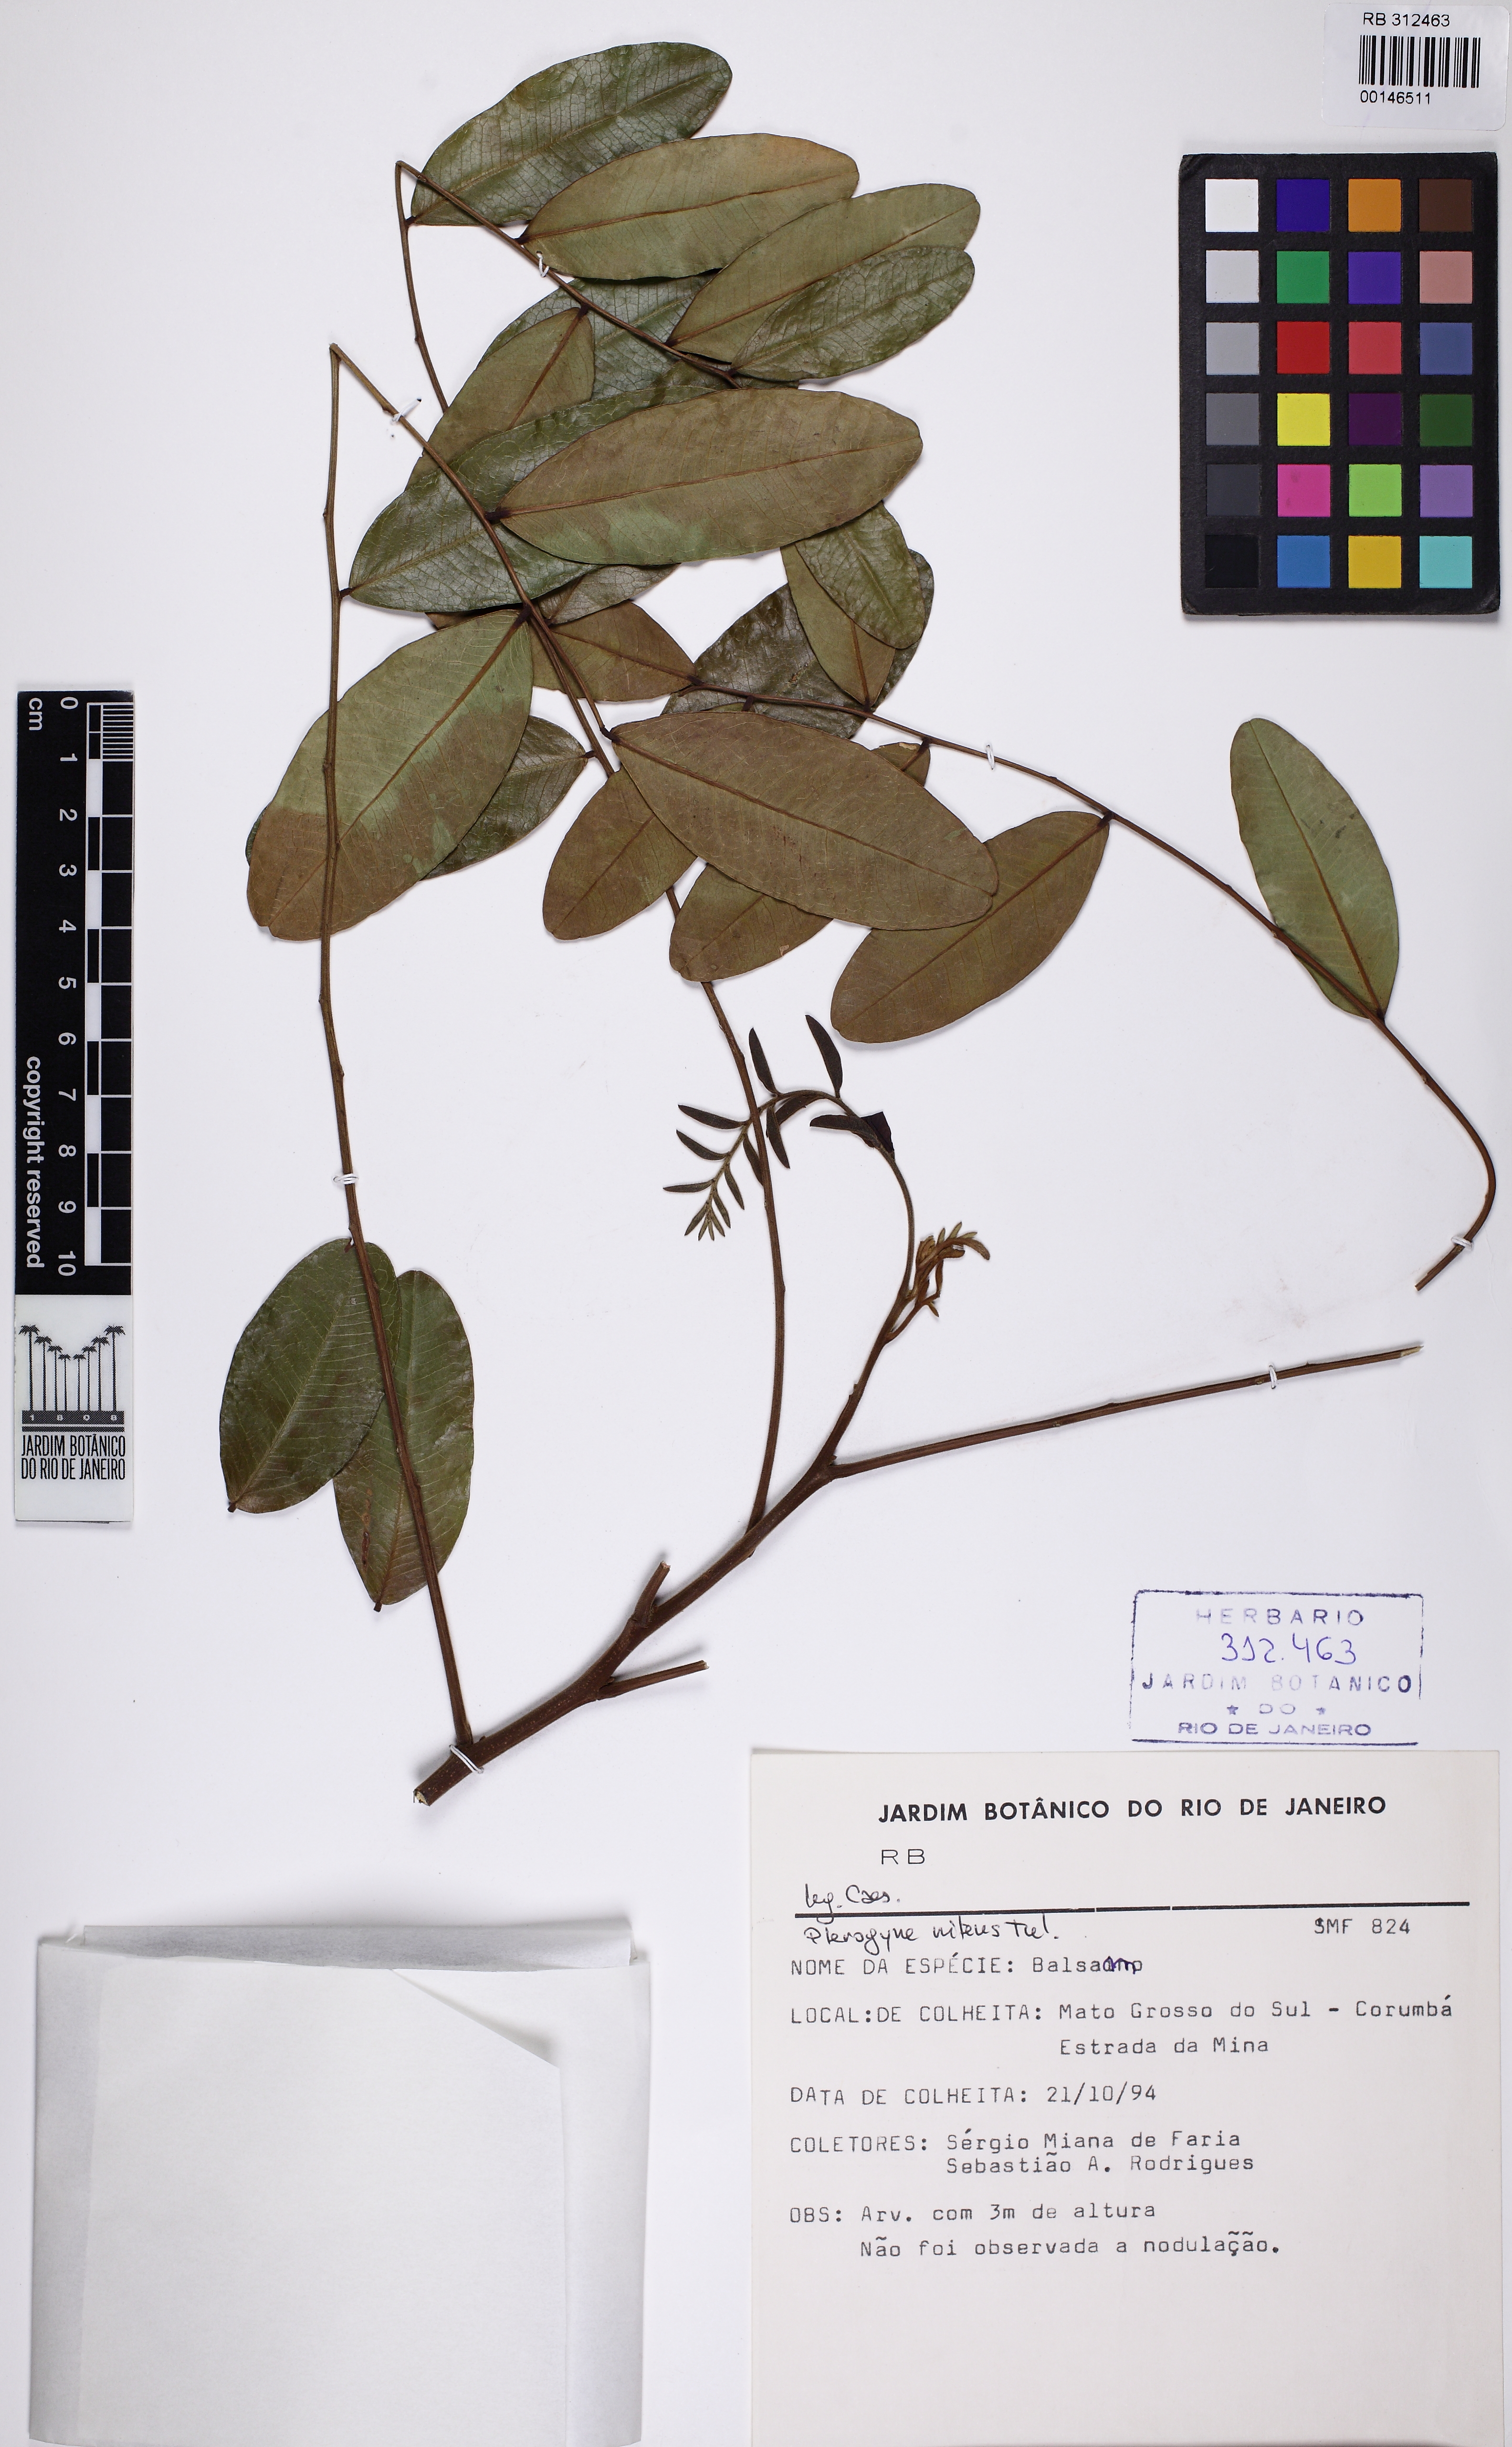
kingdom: Plantae
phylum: Tracheophyta
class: Magnoliopsida
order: Fabales
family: Fabaceae
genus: Pterogyne
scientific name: Pterogyne nitens
